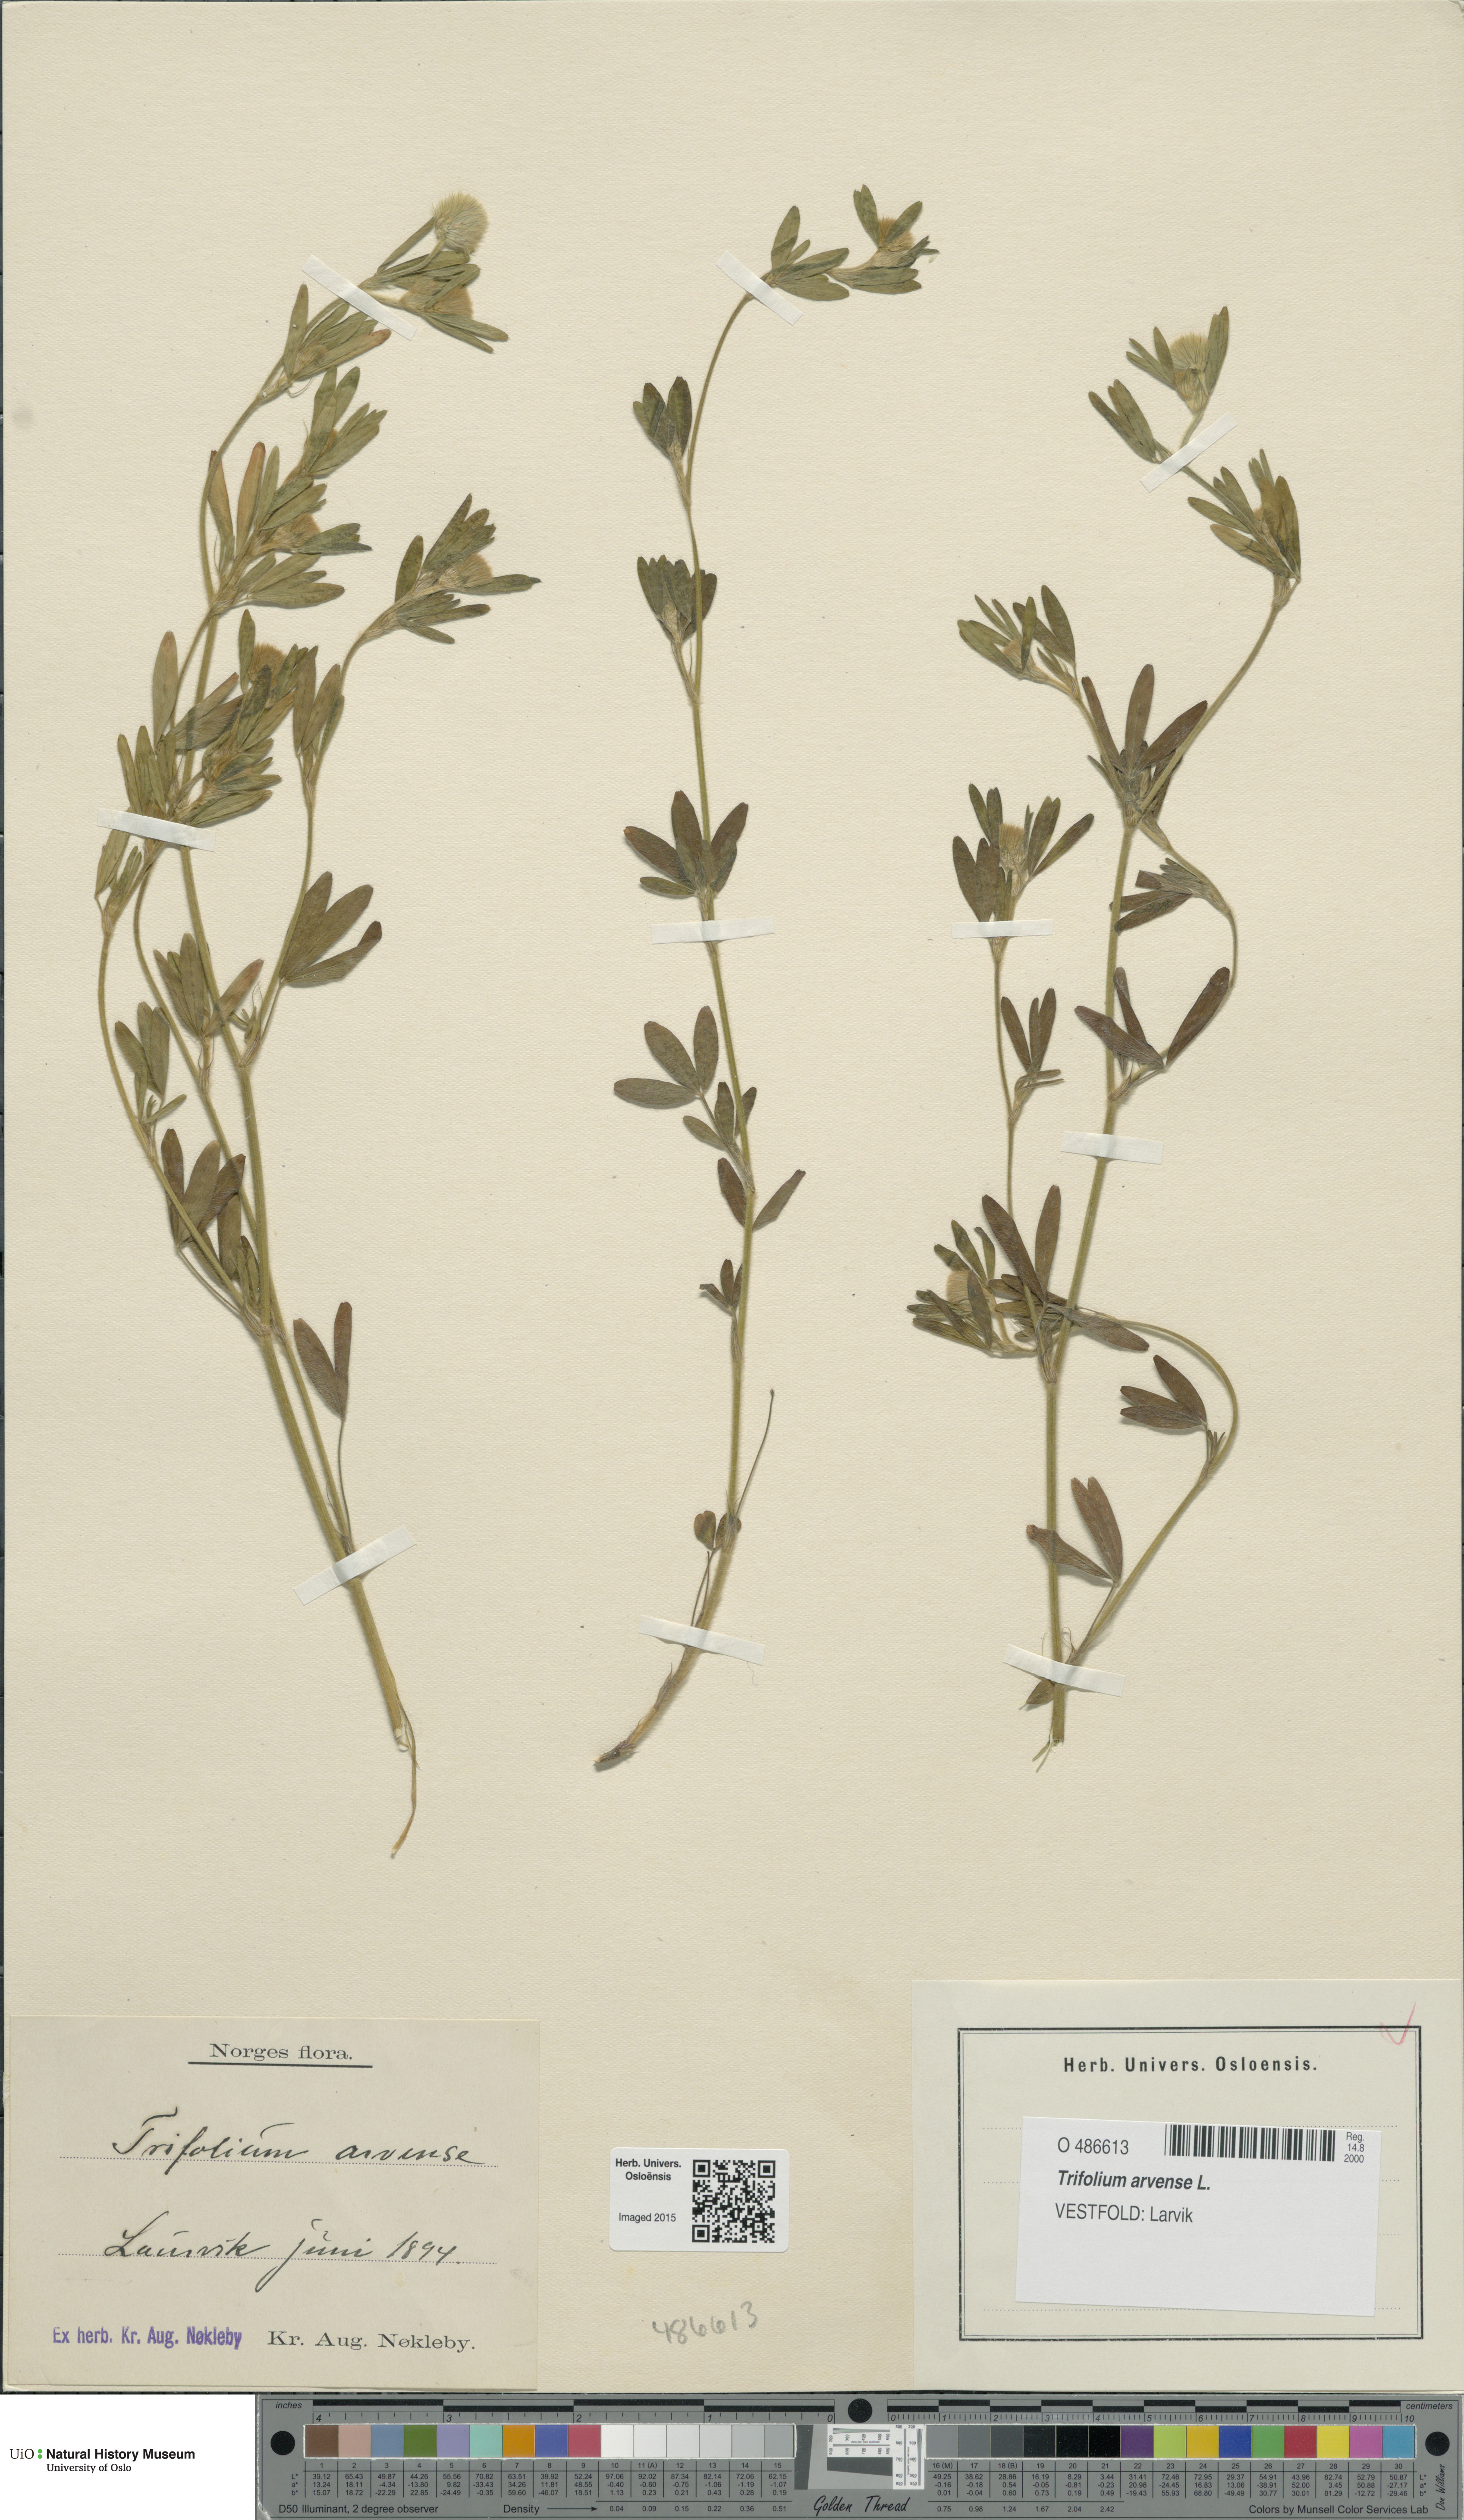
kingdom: Plantae
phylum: Tracheophyta
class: Magnoliopsida
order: Fabales
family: Fabaceae
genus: Trifolium
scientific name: Trifolium arvense
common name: Hare's-foot clover
